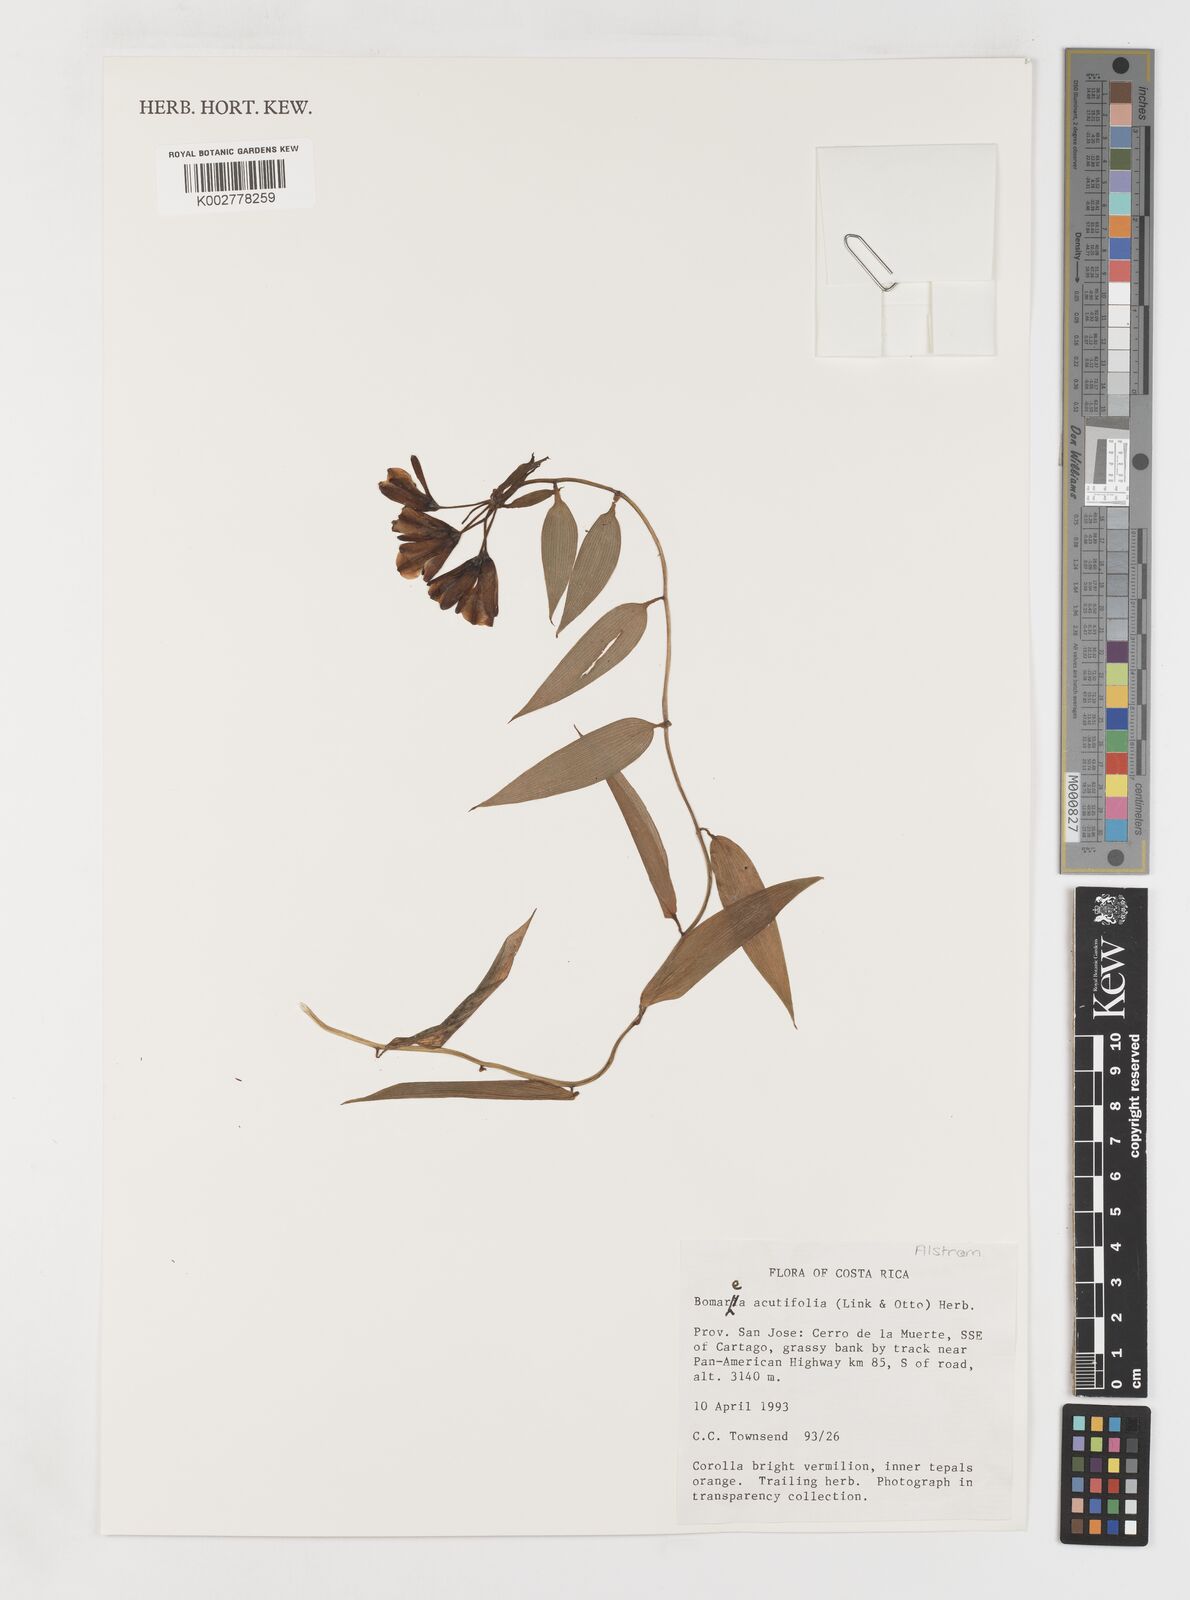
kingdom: Plantae
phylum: Tracheophyta
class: Liliopsida
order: Liliales
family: Alstroemeriaceae
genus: Bomarea
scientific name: Bomarea acutifolia
